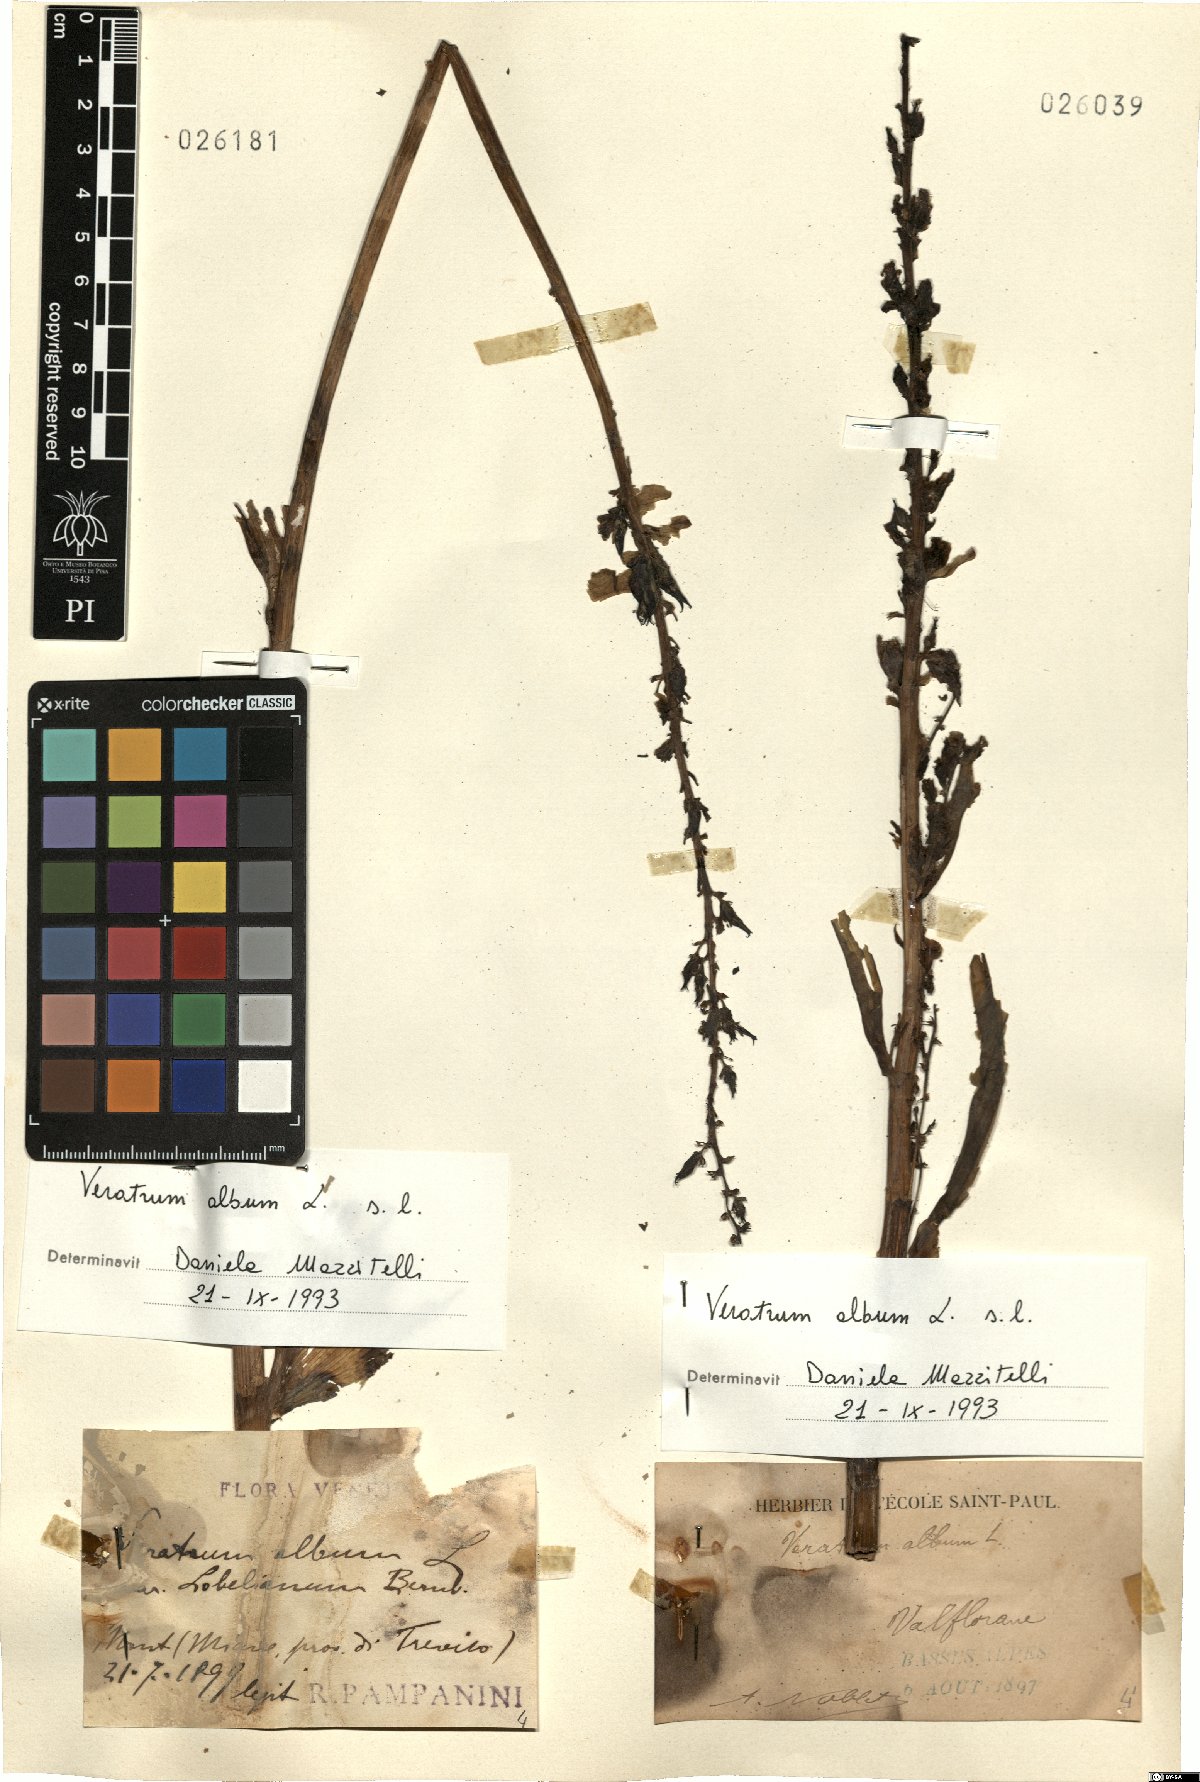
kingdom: Plantae
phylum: Tracheophyta
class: Liliopsida
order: Liliales
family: Melanthiaceae
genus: Veratrum
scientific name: Veratrum album
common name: White veratrum
